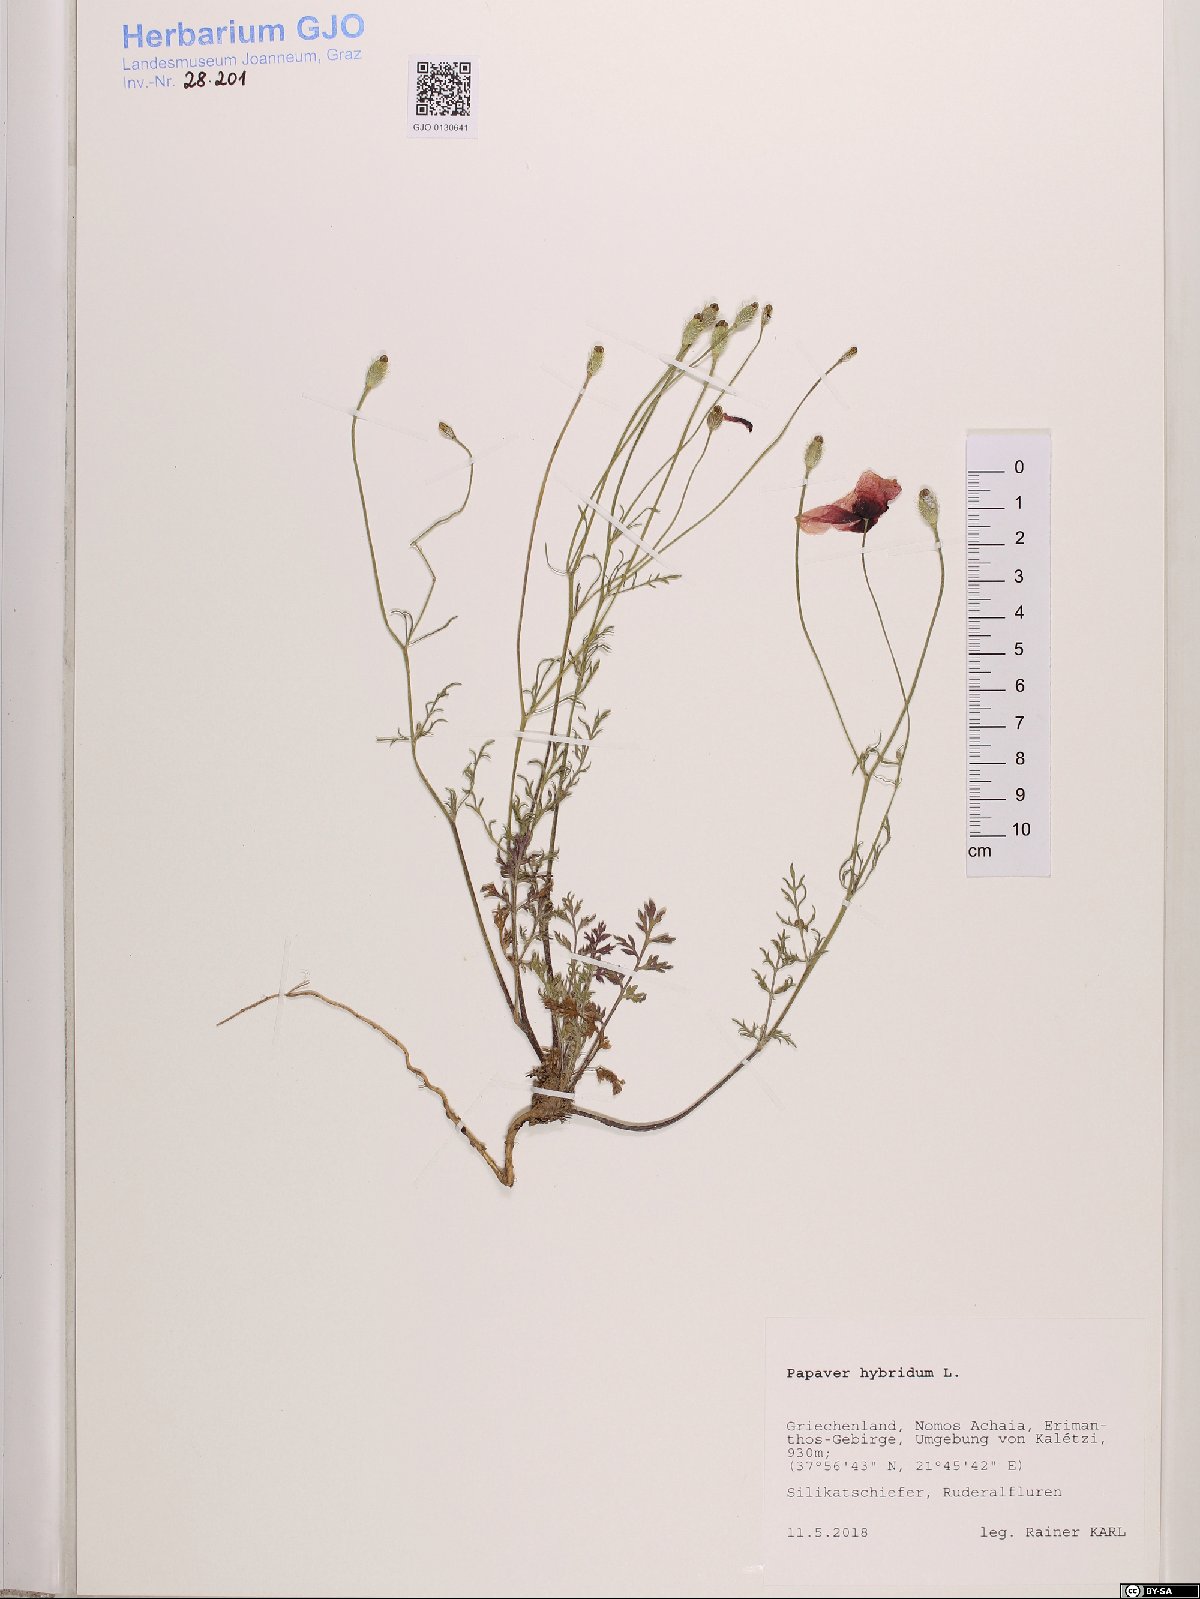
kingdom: Plantae
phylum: Tracheophyta
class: Magnoliopsida
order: Ranunculales
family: Papaveraceae
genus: Roemeria
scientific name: Roemeria hispida
